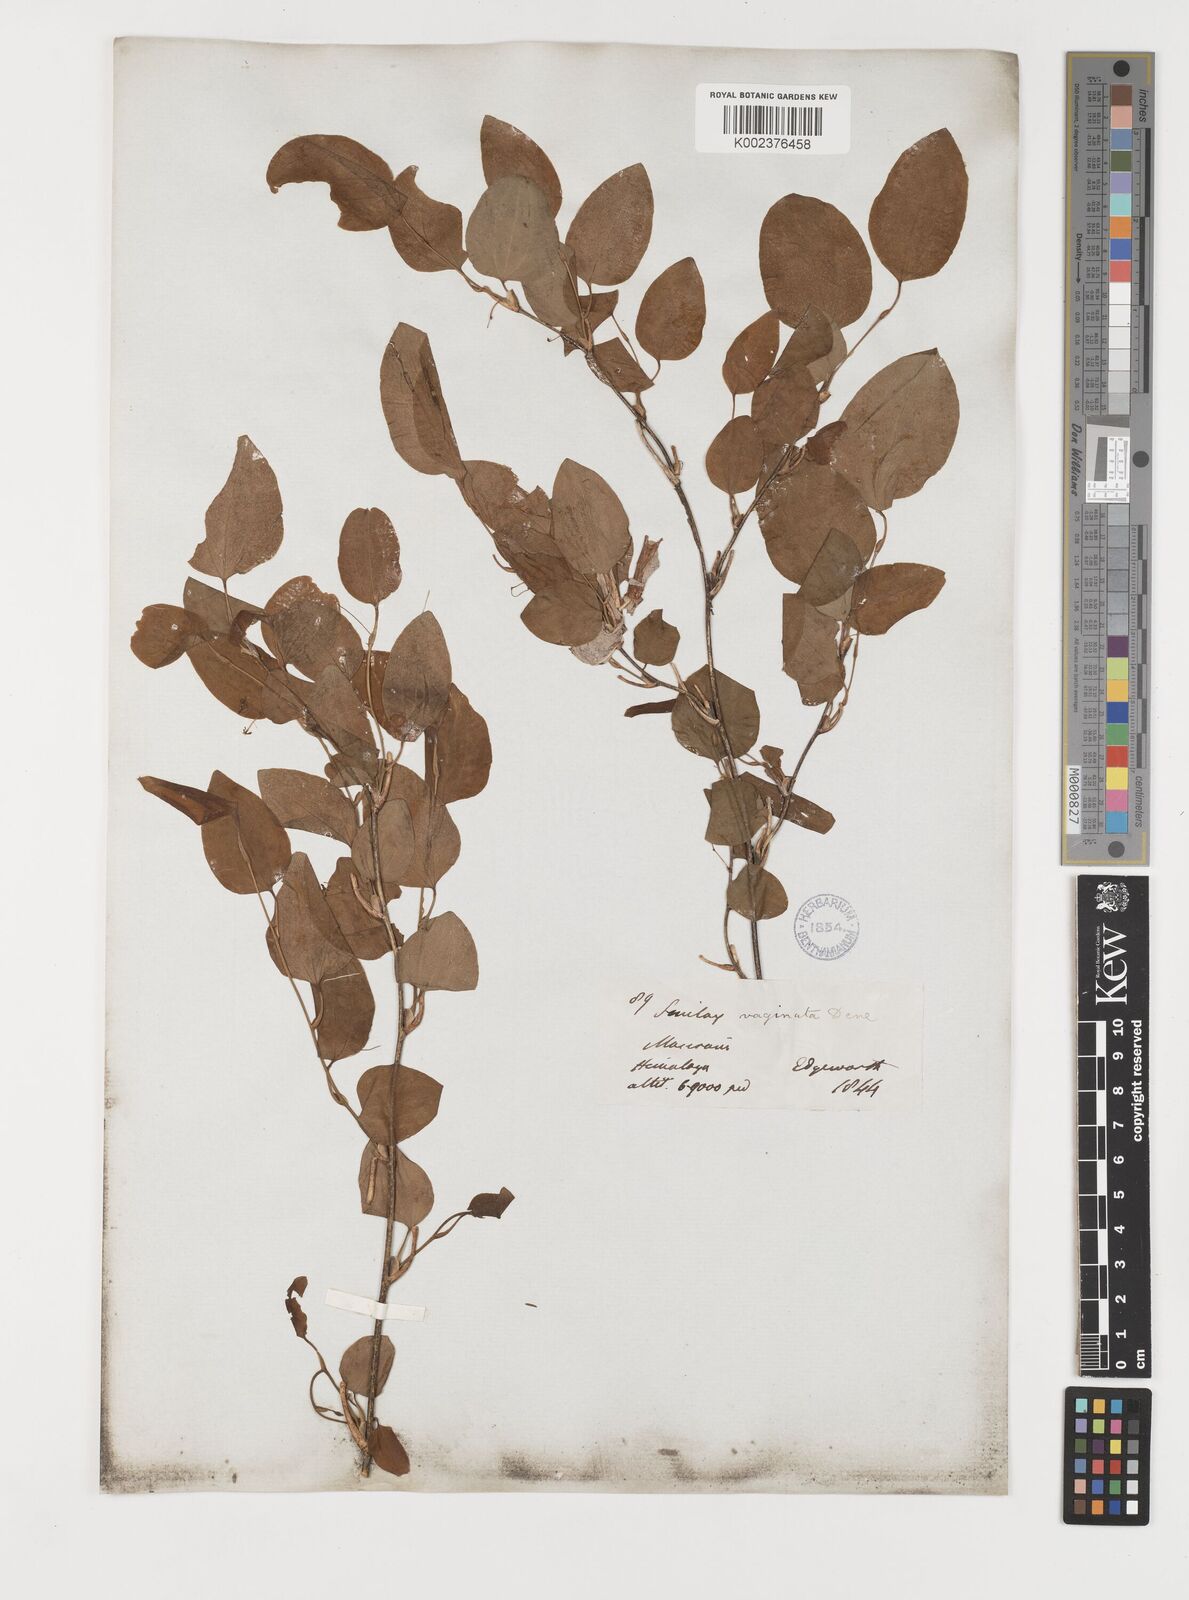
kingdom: Plantae
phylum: Tracheophyta
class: Liliopsida
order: Liliales
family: Smilacaceae
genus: Smilax
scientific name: Smilax vaginata
